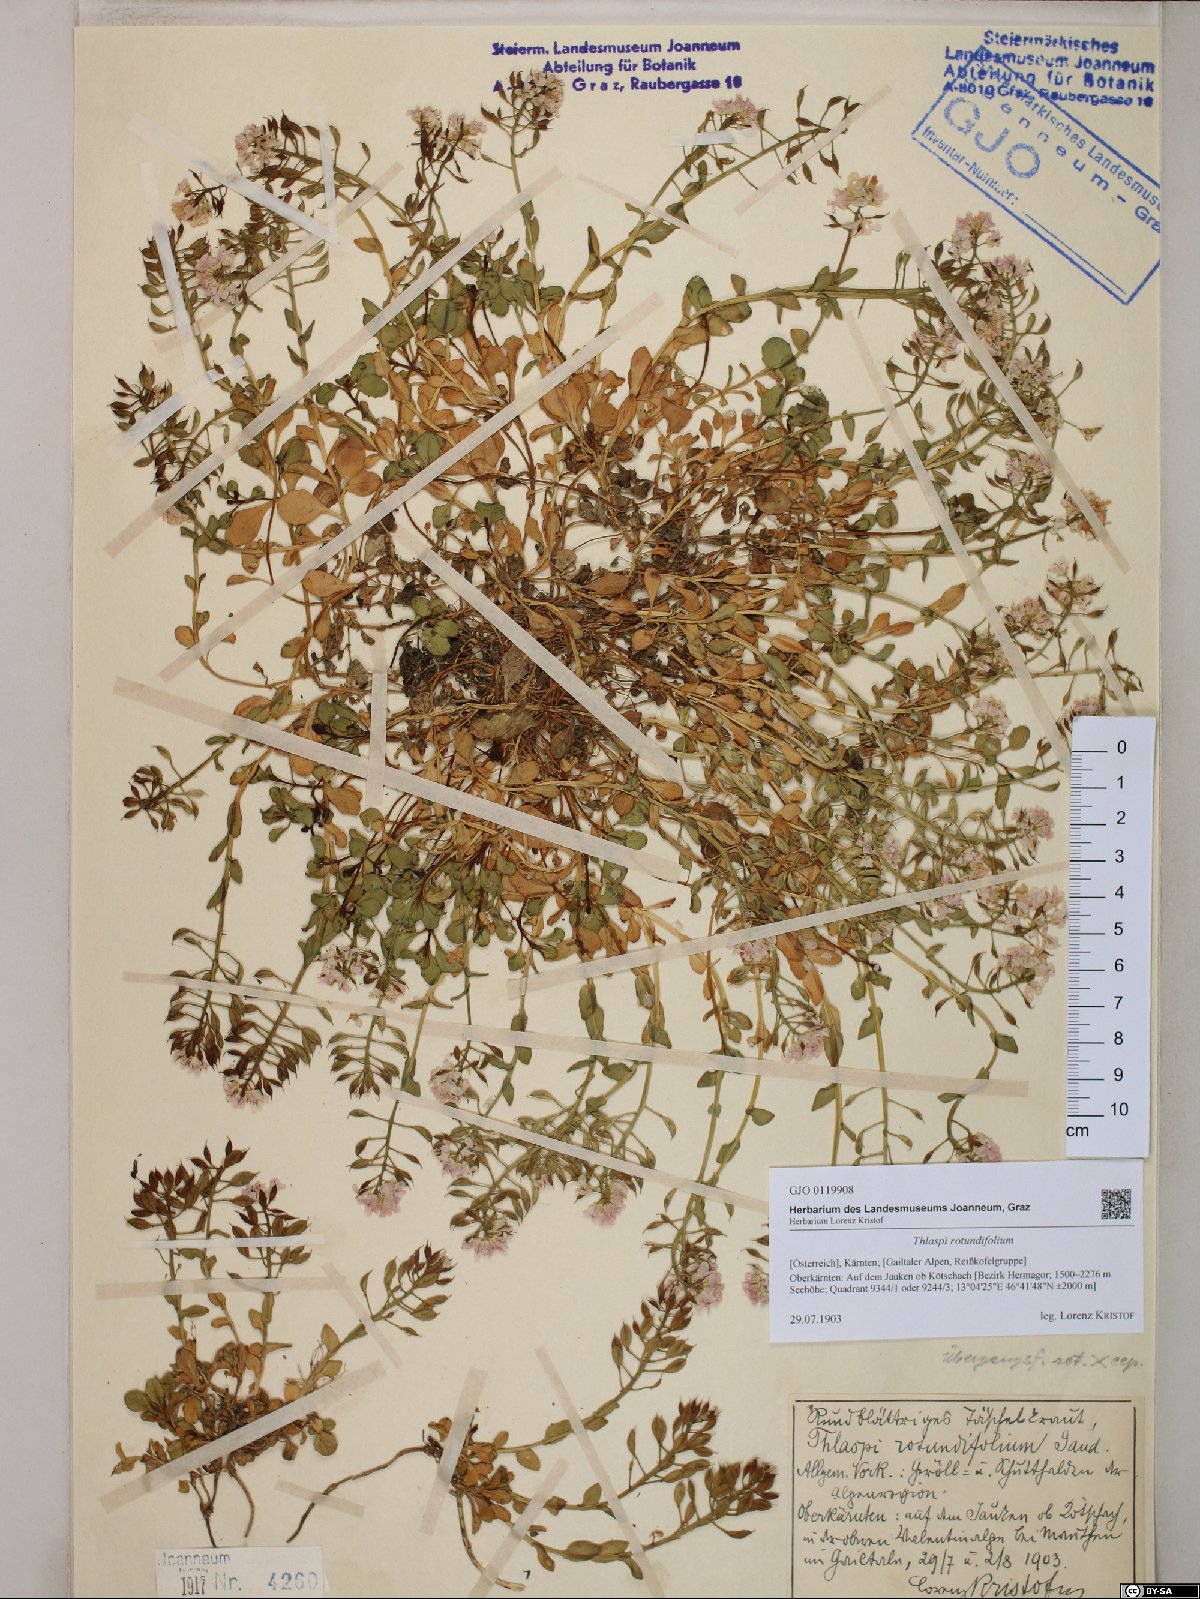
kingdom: Plantae
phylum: Tracheophyta
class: Magnoliopsida
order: Brassicales
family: Brassicaceae
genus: Noccaea
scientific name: Noccaea rotundifolia
